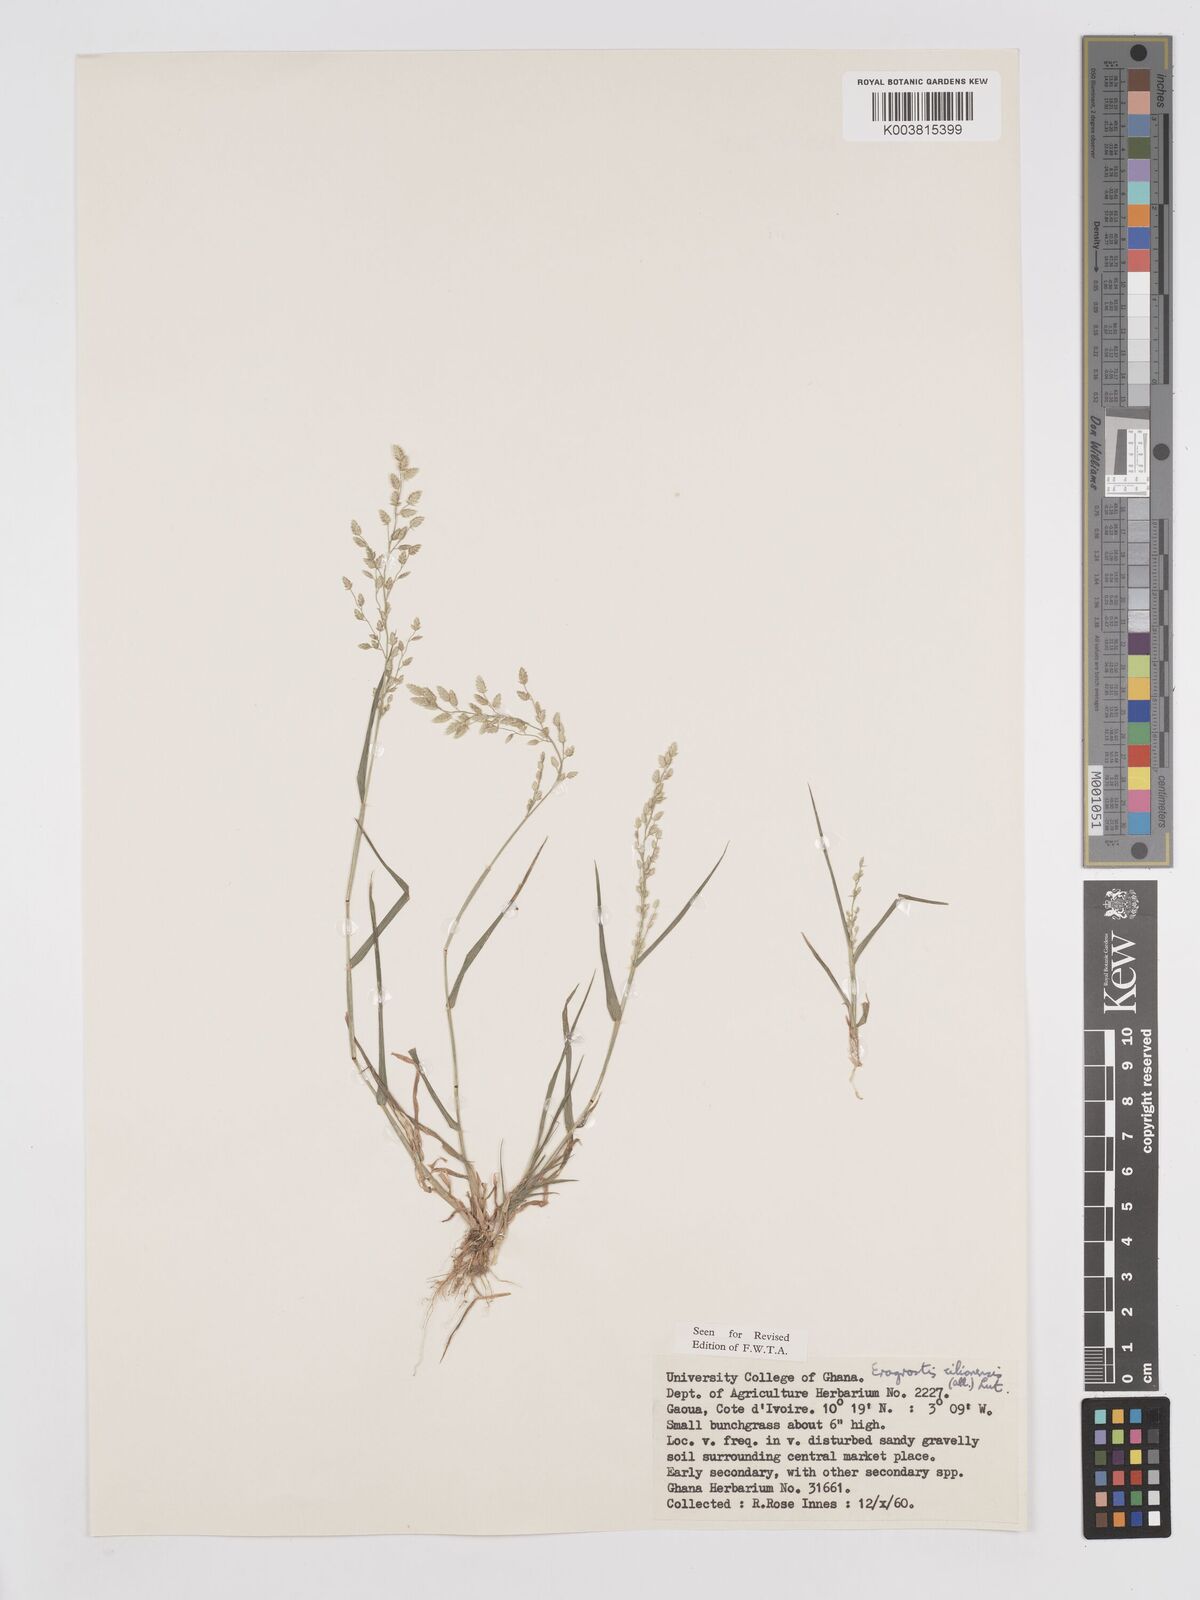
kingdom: Plantae
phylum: Tracheophyta
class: Liliopsida
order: Poales
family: Poaceae
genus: Eragrostis
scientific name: Eragrostis cilianensis
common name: Stinkgrass
